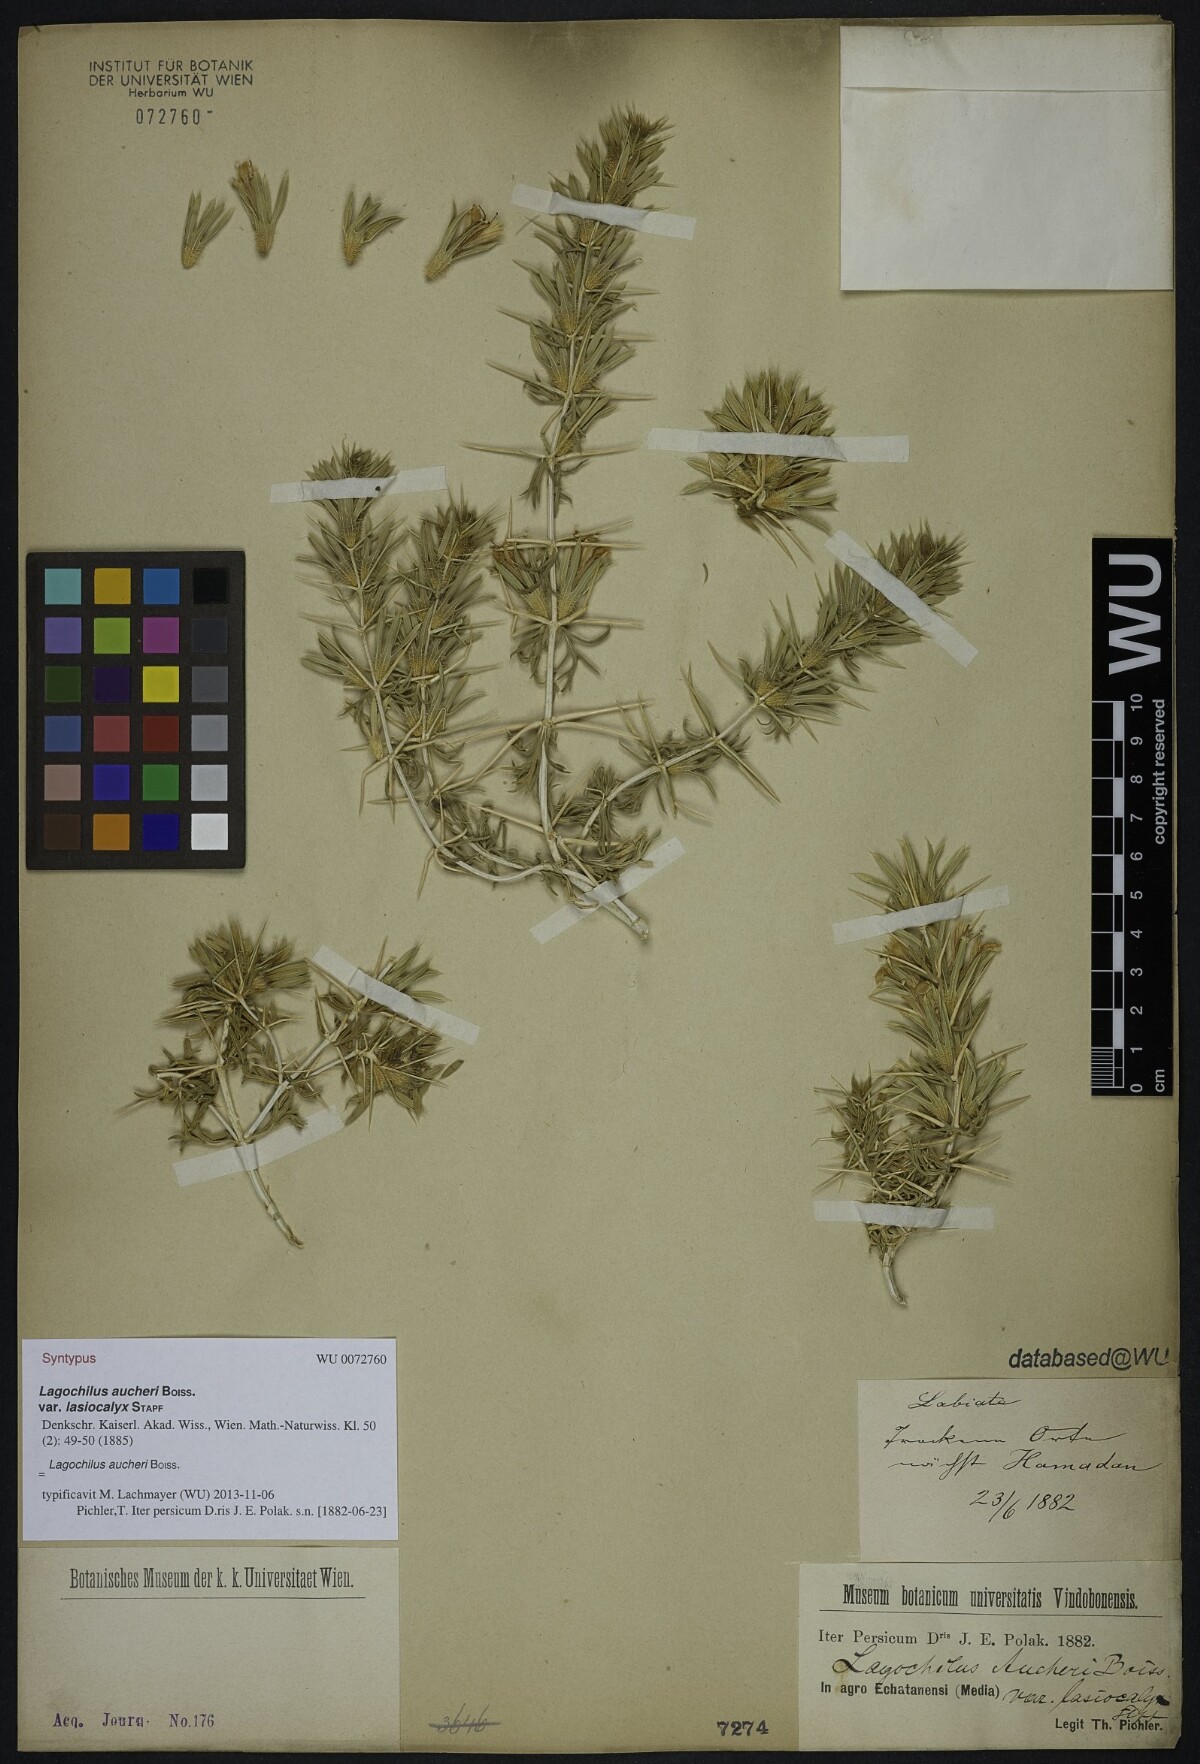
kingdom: Plantae
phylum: Tracheophyta
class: Magnoliopsida
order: Lamiales
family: Lamiaceae
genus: Lagochilus
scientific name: Lagochilus aucheri
